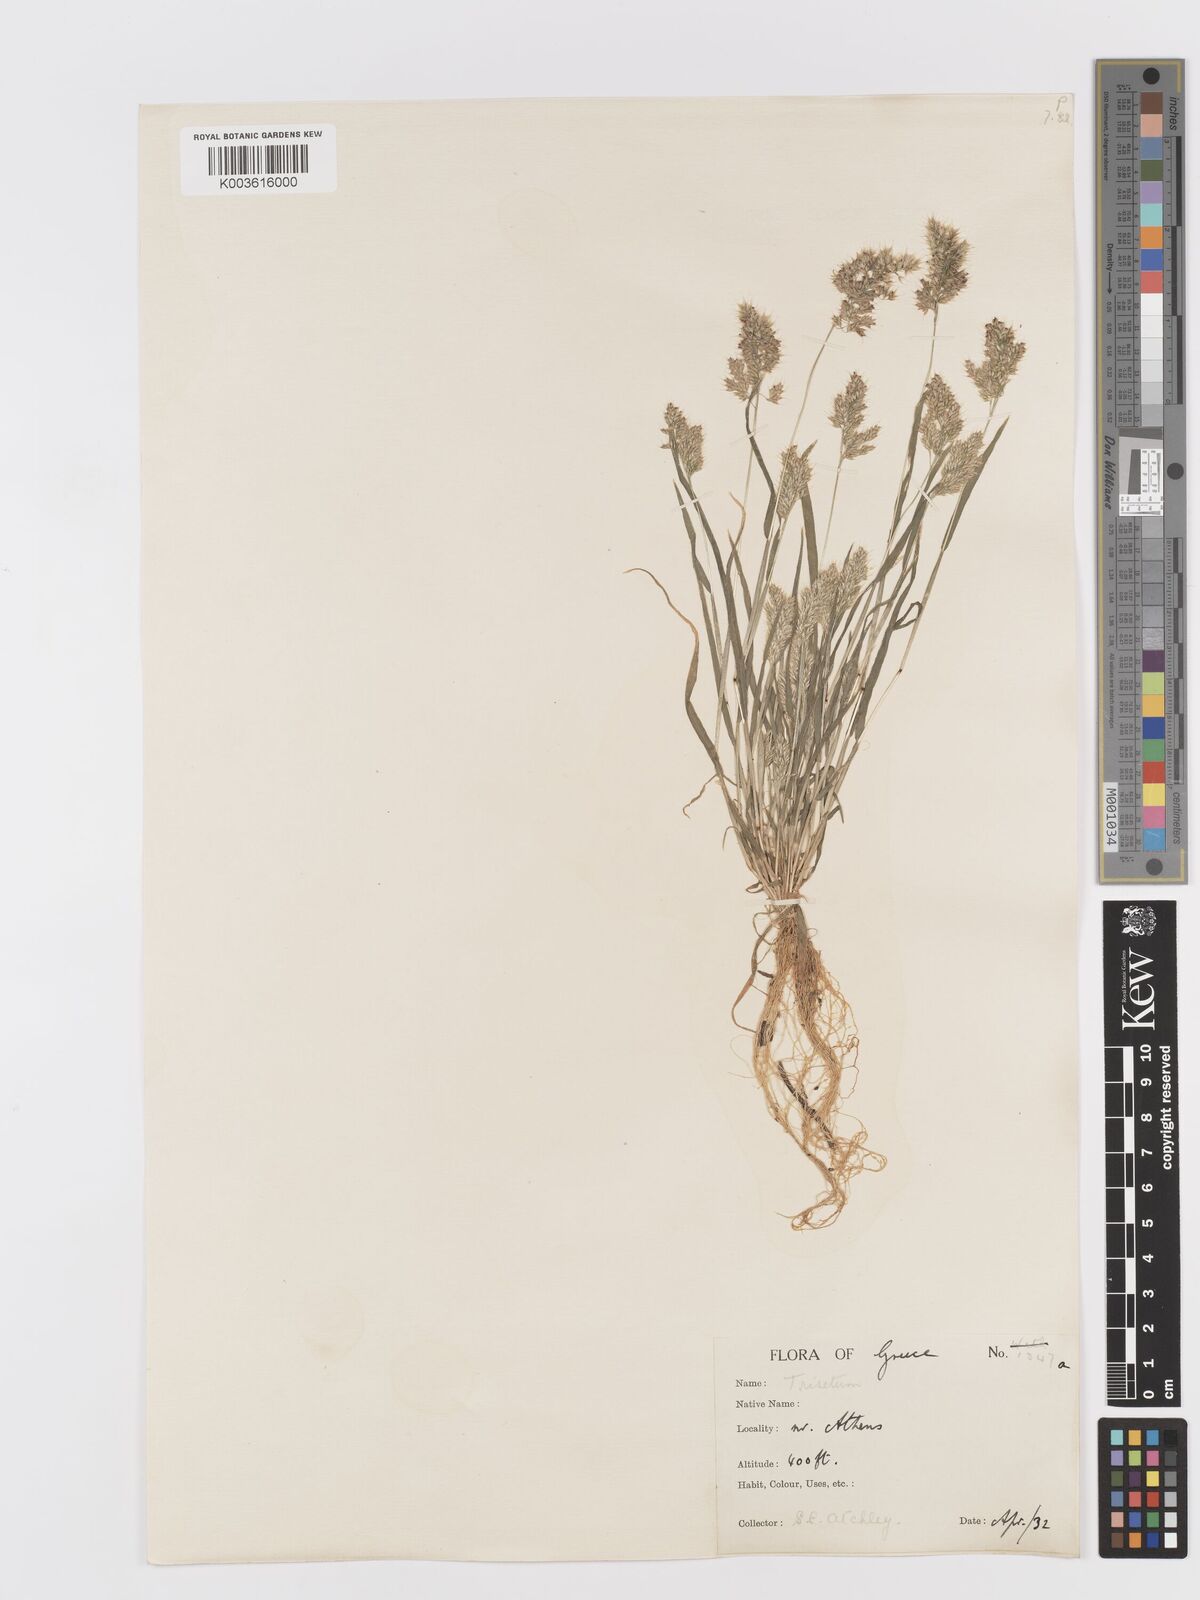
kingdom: Plantae
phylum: Tracheophyta
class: Liliopsida
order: Poales
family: Poaceae
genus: Trisetaria
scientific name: Trisetaria aurea
